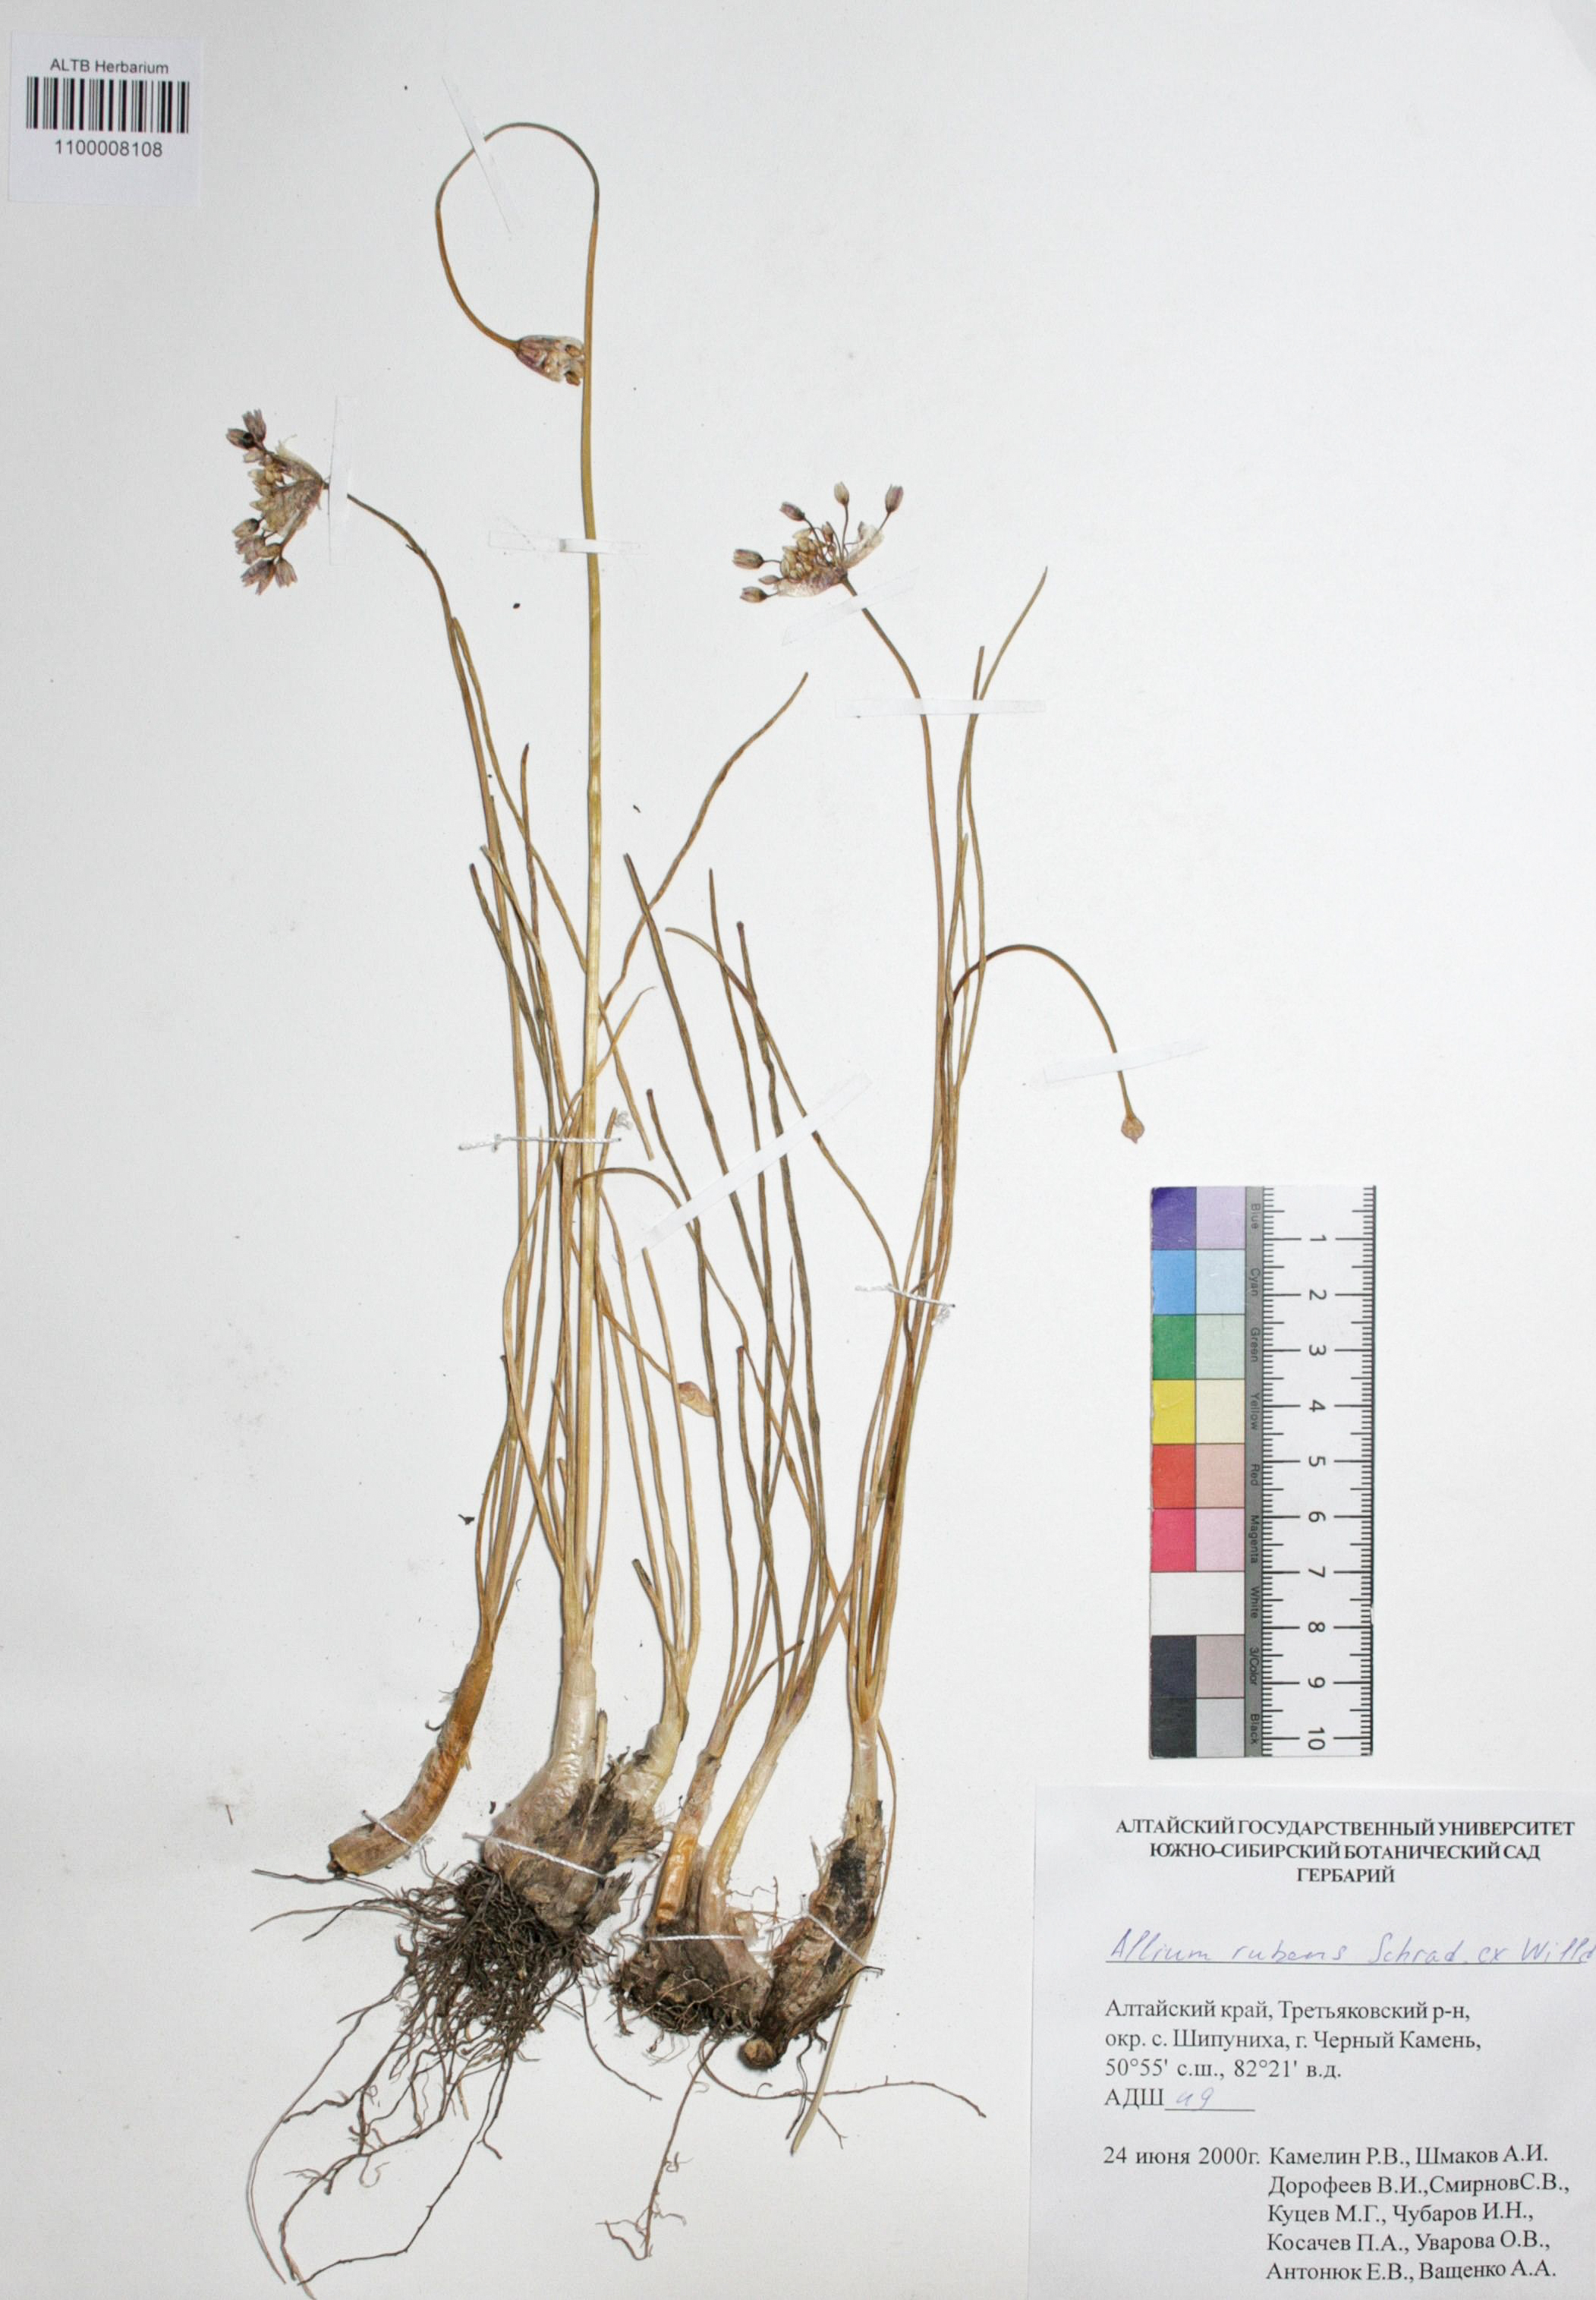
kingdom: Plantae
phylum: Tracheophyta
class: Liliopsida
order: Asparagales
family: Amaryllidaceae
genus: Allium
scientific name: Allium rubens
